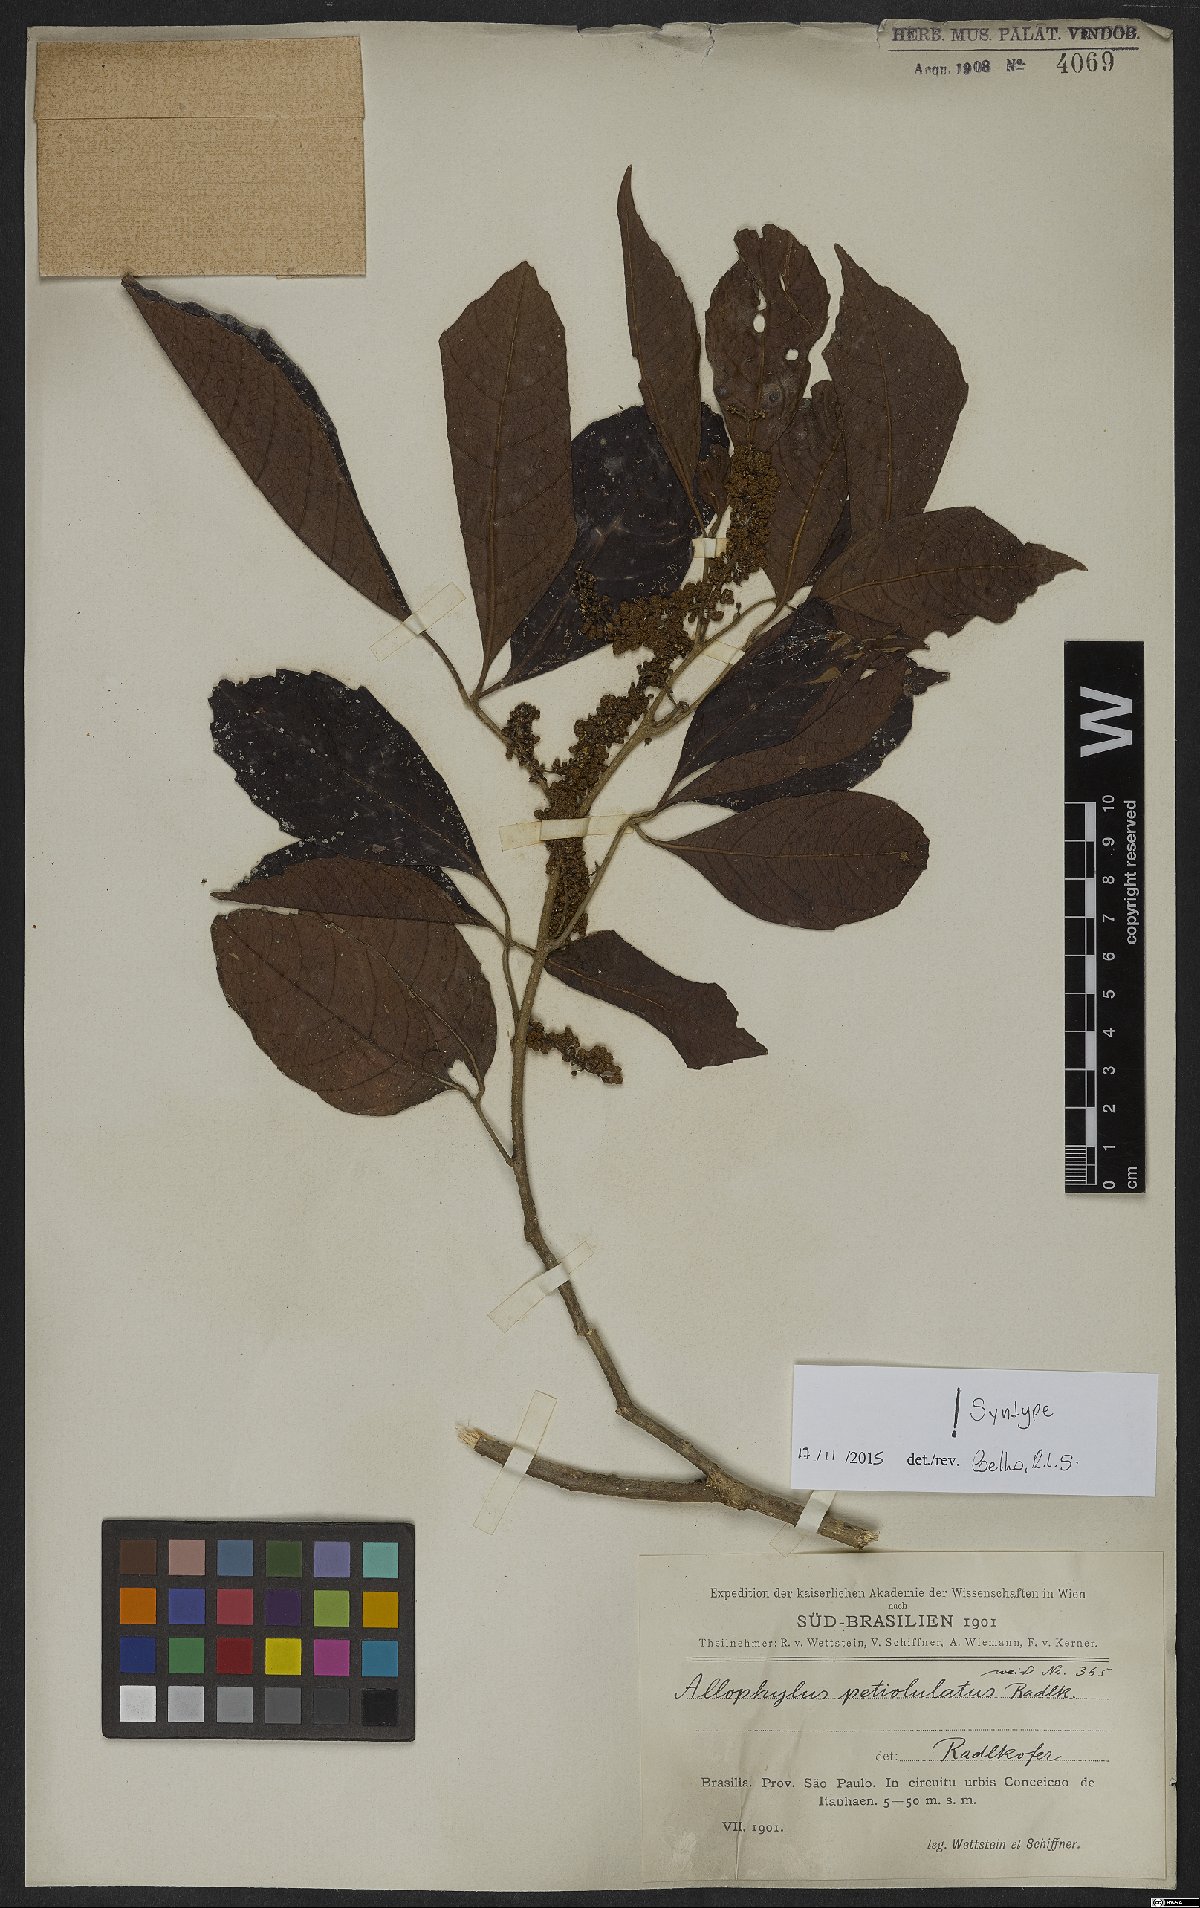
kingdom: Plantae
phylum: Tracheophyta
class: Magnoliopsida
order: Sapindales
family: Sapindaceae
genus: Allophylus
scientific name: Allophylus petiolulatus
